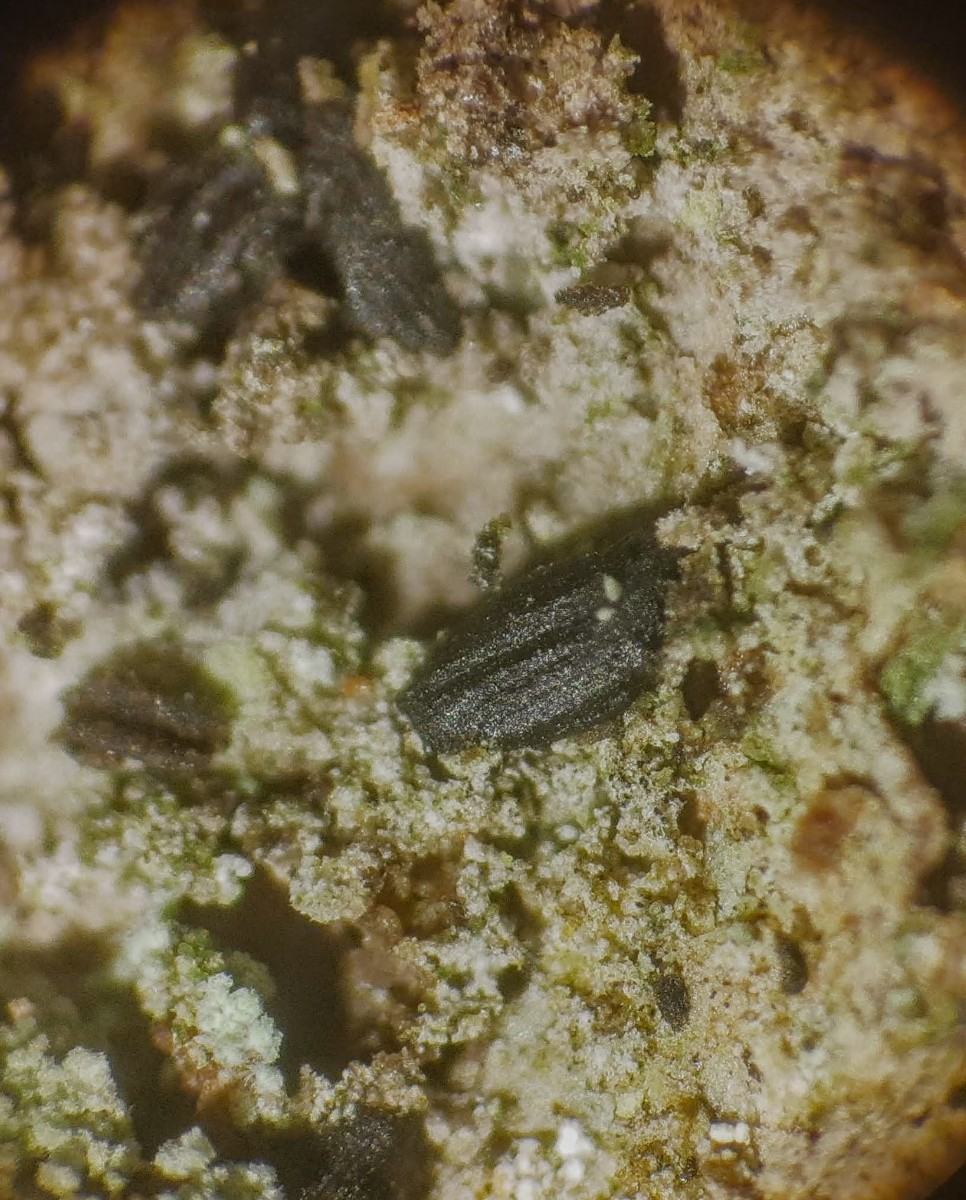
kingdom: Fungi
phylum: Ascomycota
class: Dothideomycetes
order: Hysteriales
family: Hysteriaceae
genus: Hysterium
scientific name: Hysterium pulicare
